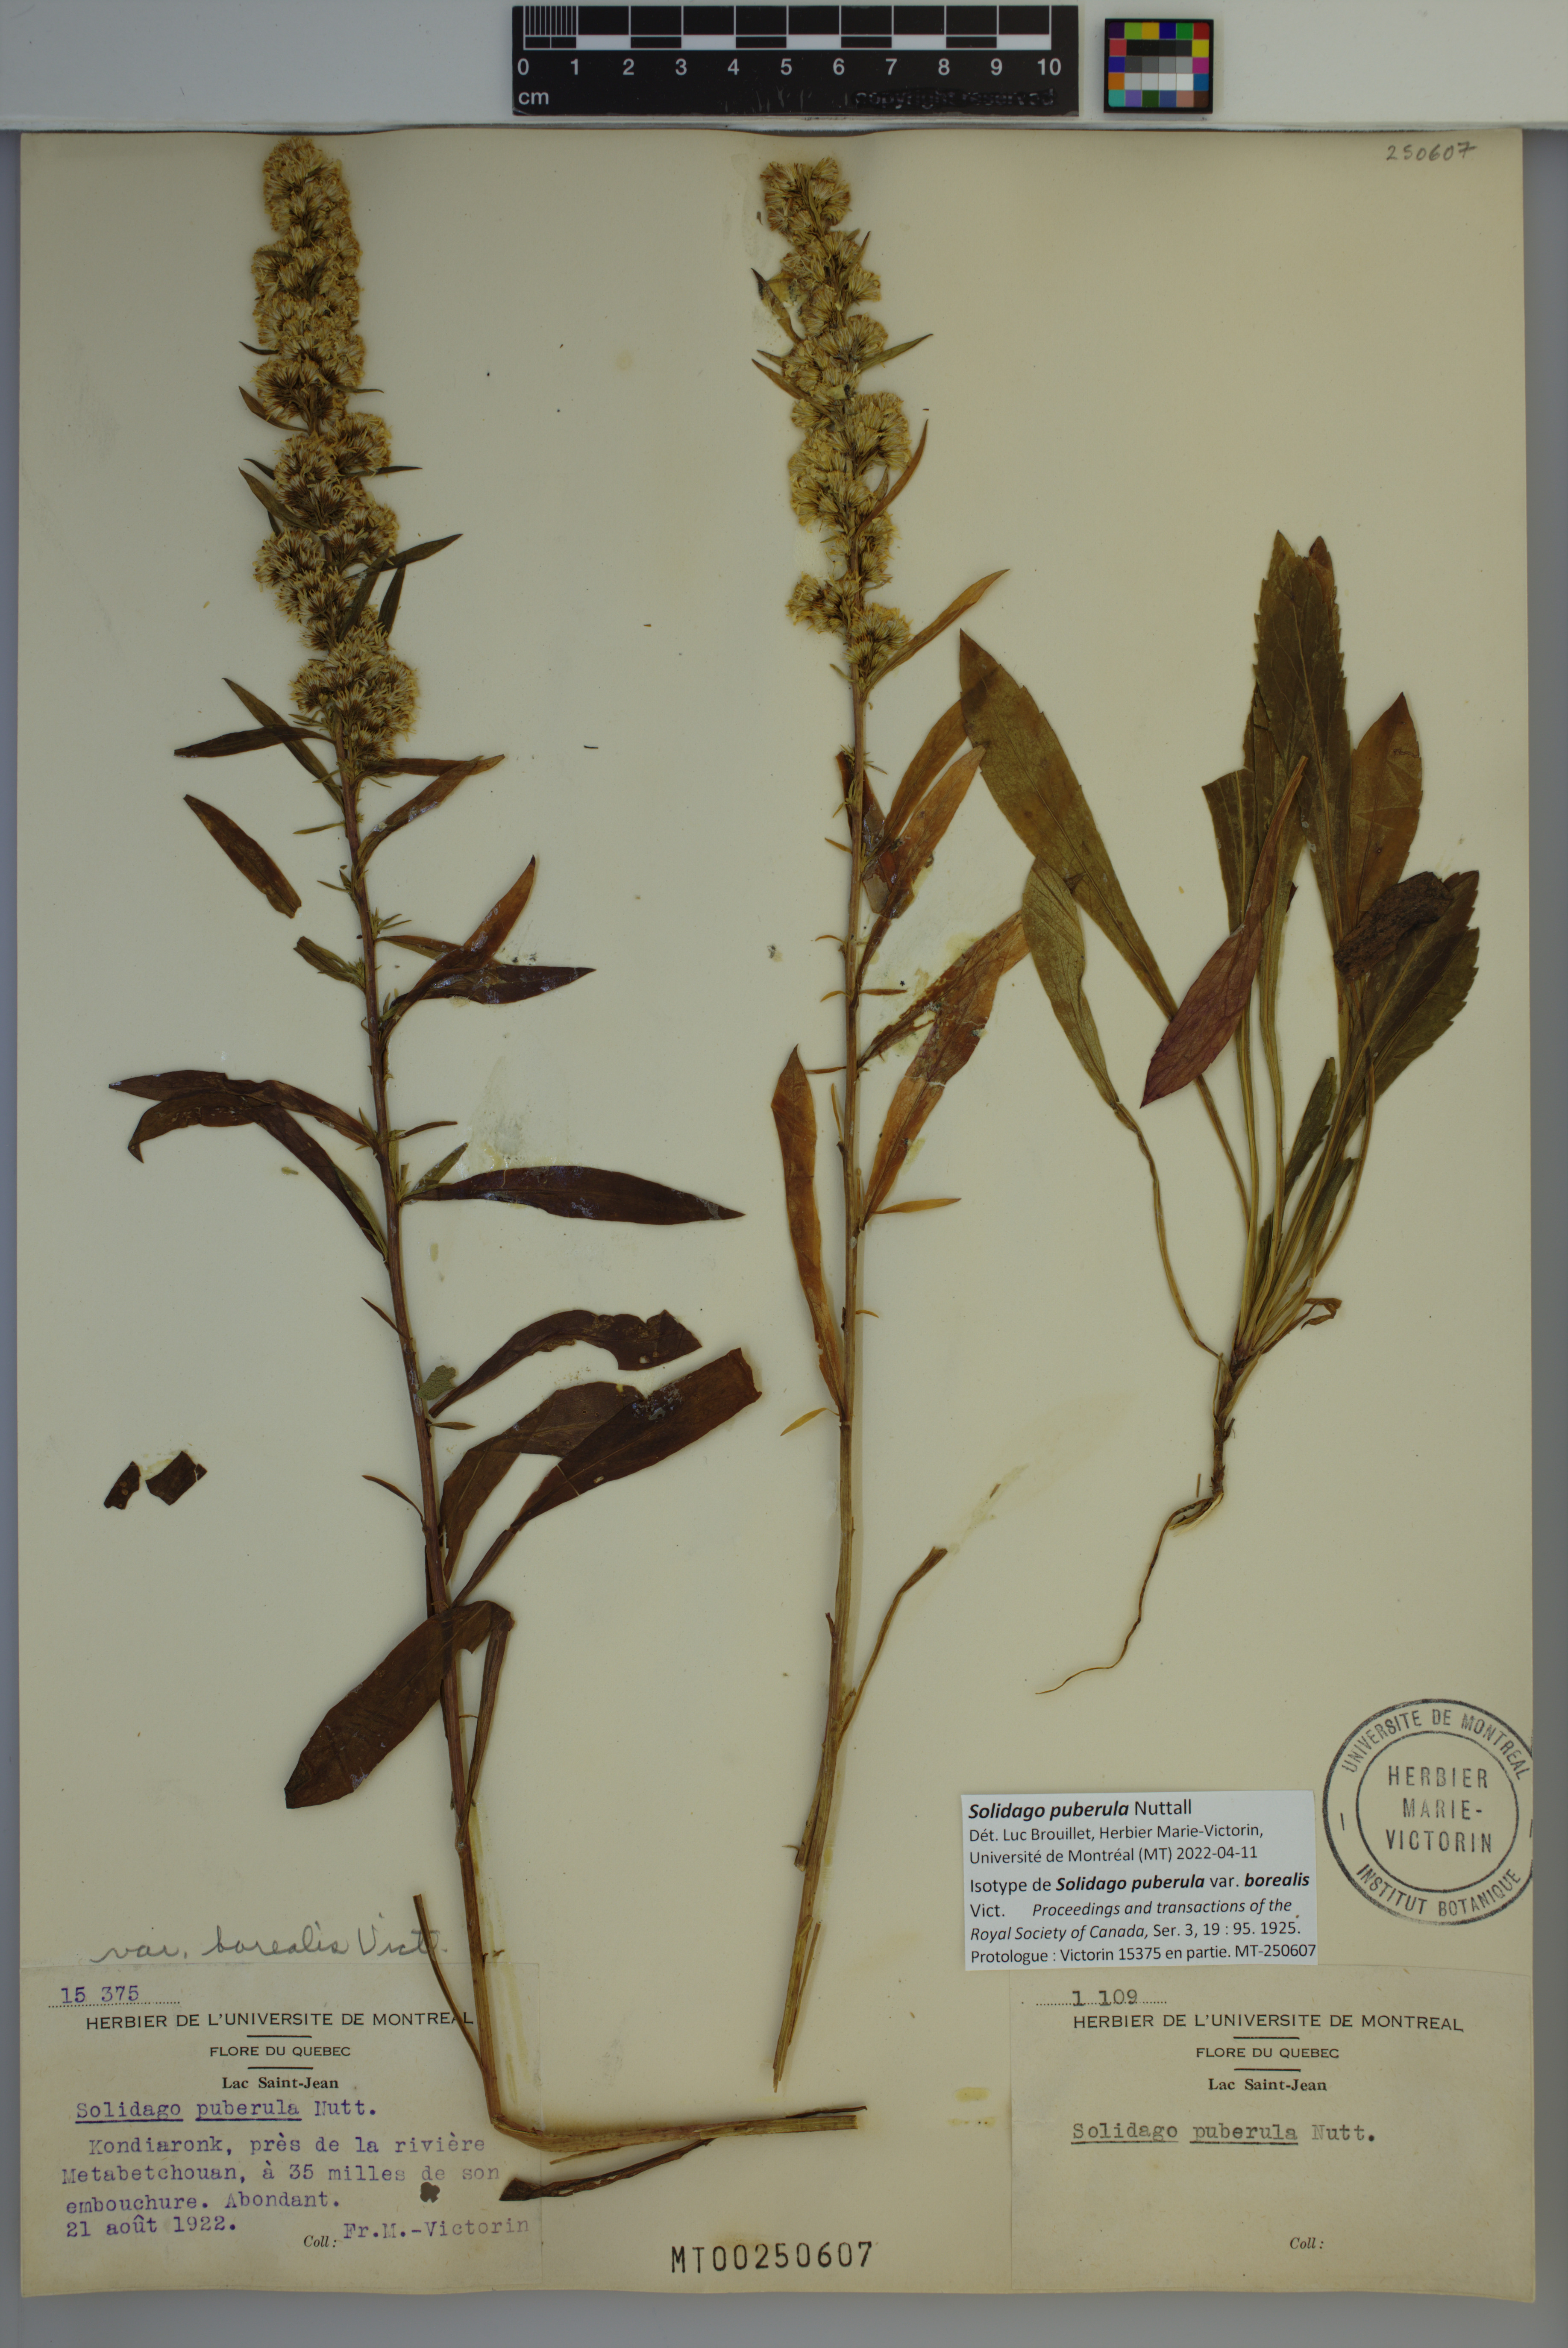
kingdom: Plantae
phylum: Tracheophyta
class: Magnoliopsida
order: Asterales
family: Asteraceae
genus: Solidago
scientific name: Solidago puberula
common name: Downy goldenrod
